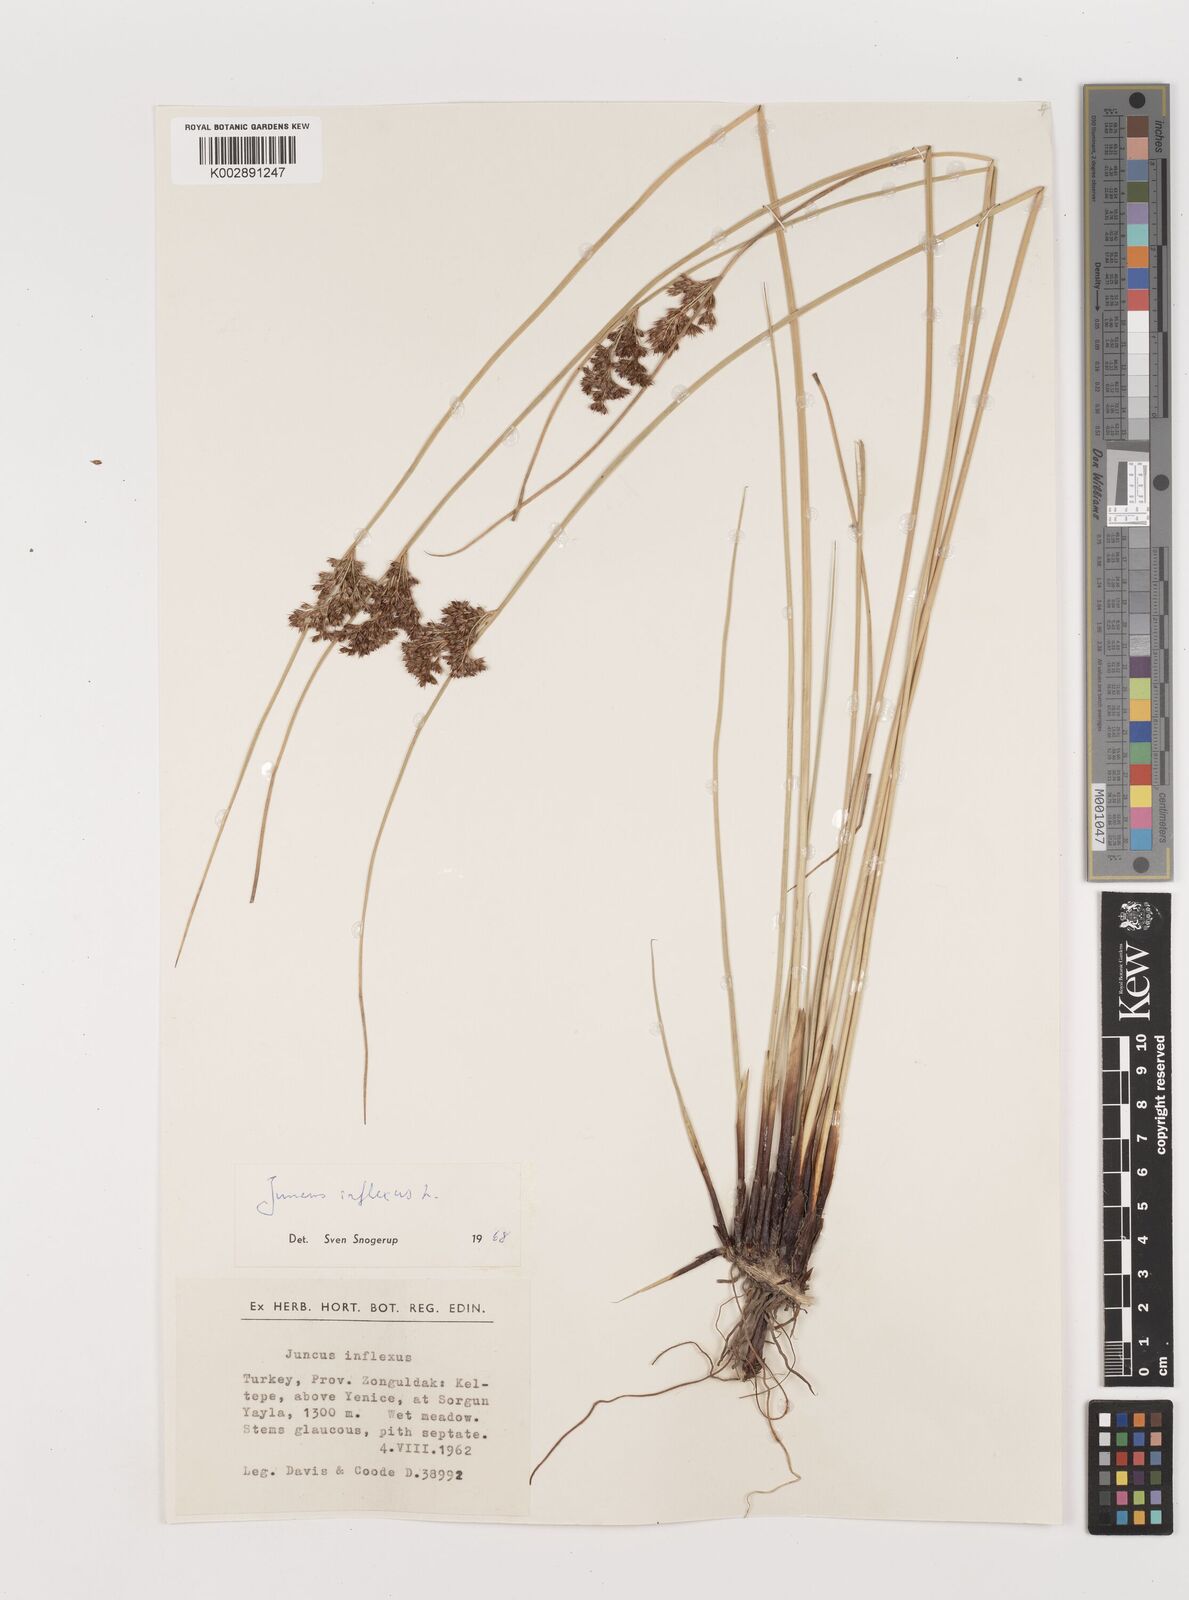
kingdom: Plantae
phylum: Tracheophyta
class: Liliopsida
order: Poales
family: Juncaceae
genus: Juncus
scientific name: Juncus inflexus
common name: Hard rush
